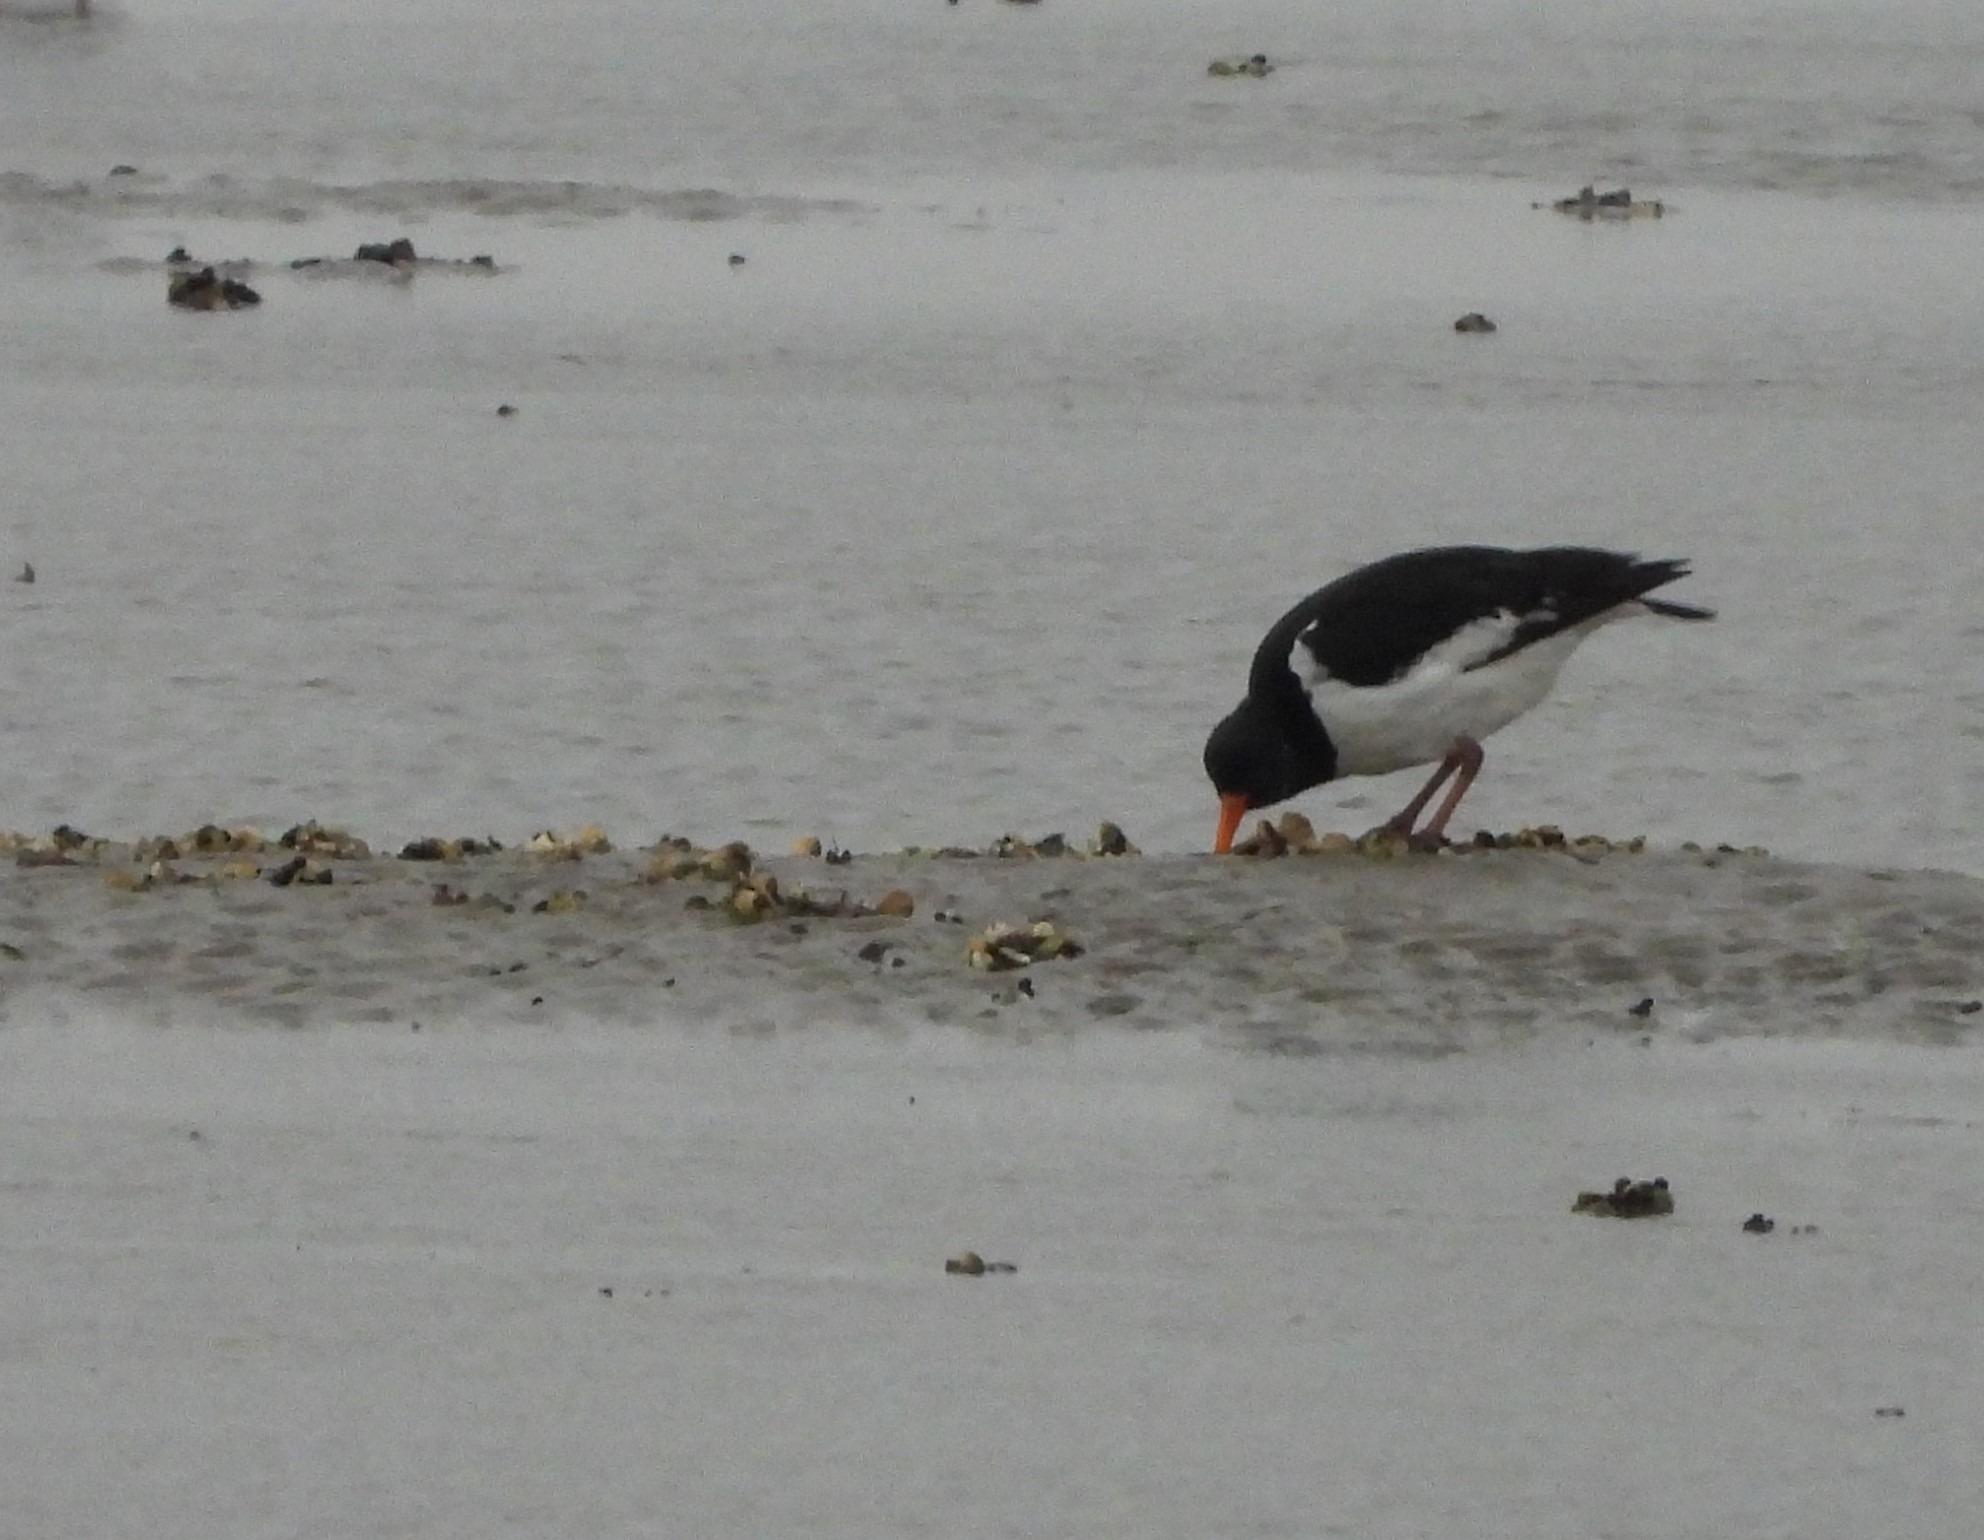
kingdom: Animalia
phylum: Chordata
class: Aves
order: Charadriiformes
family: Haematopodidae
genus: Haematopus
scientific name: Haematopus ostralegus
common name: Strandskade
